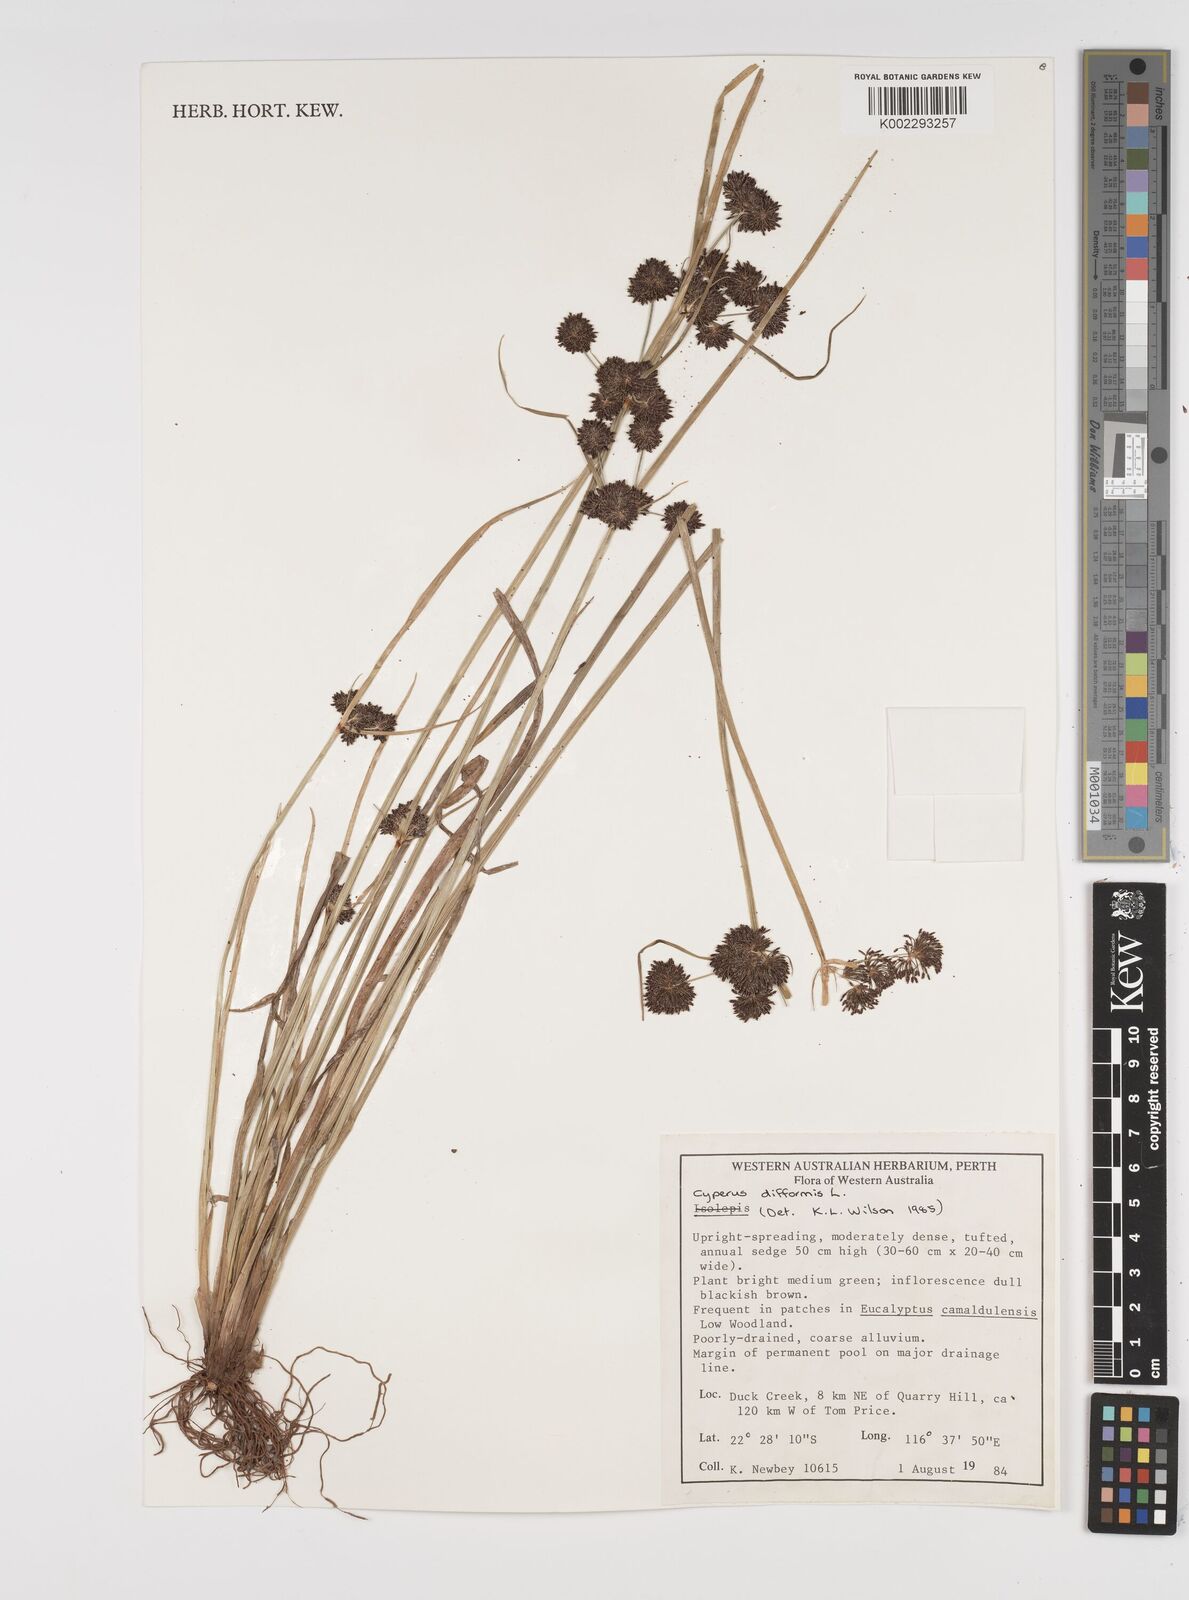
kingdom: Plantae
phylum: Tracheophyta
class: Liliopsida
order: Poales
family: Cyperaceae
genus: Cyperus
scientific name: Cyperus difformis
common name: Variable flatsedge
